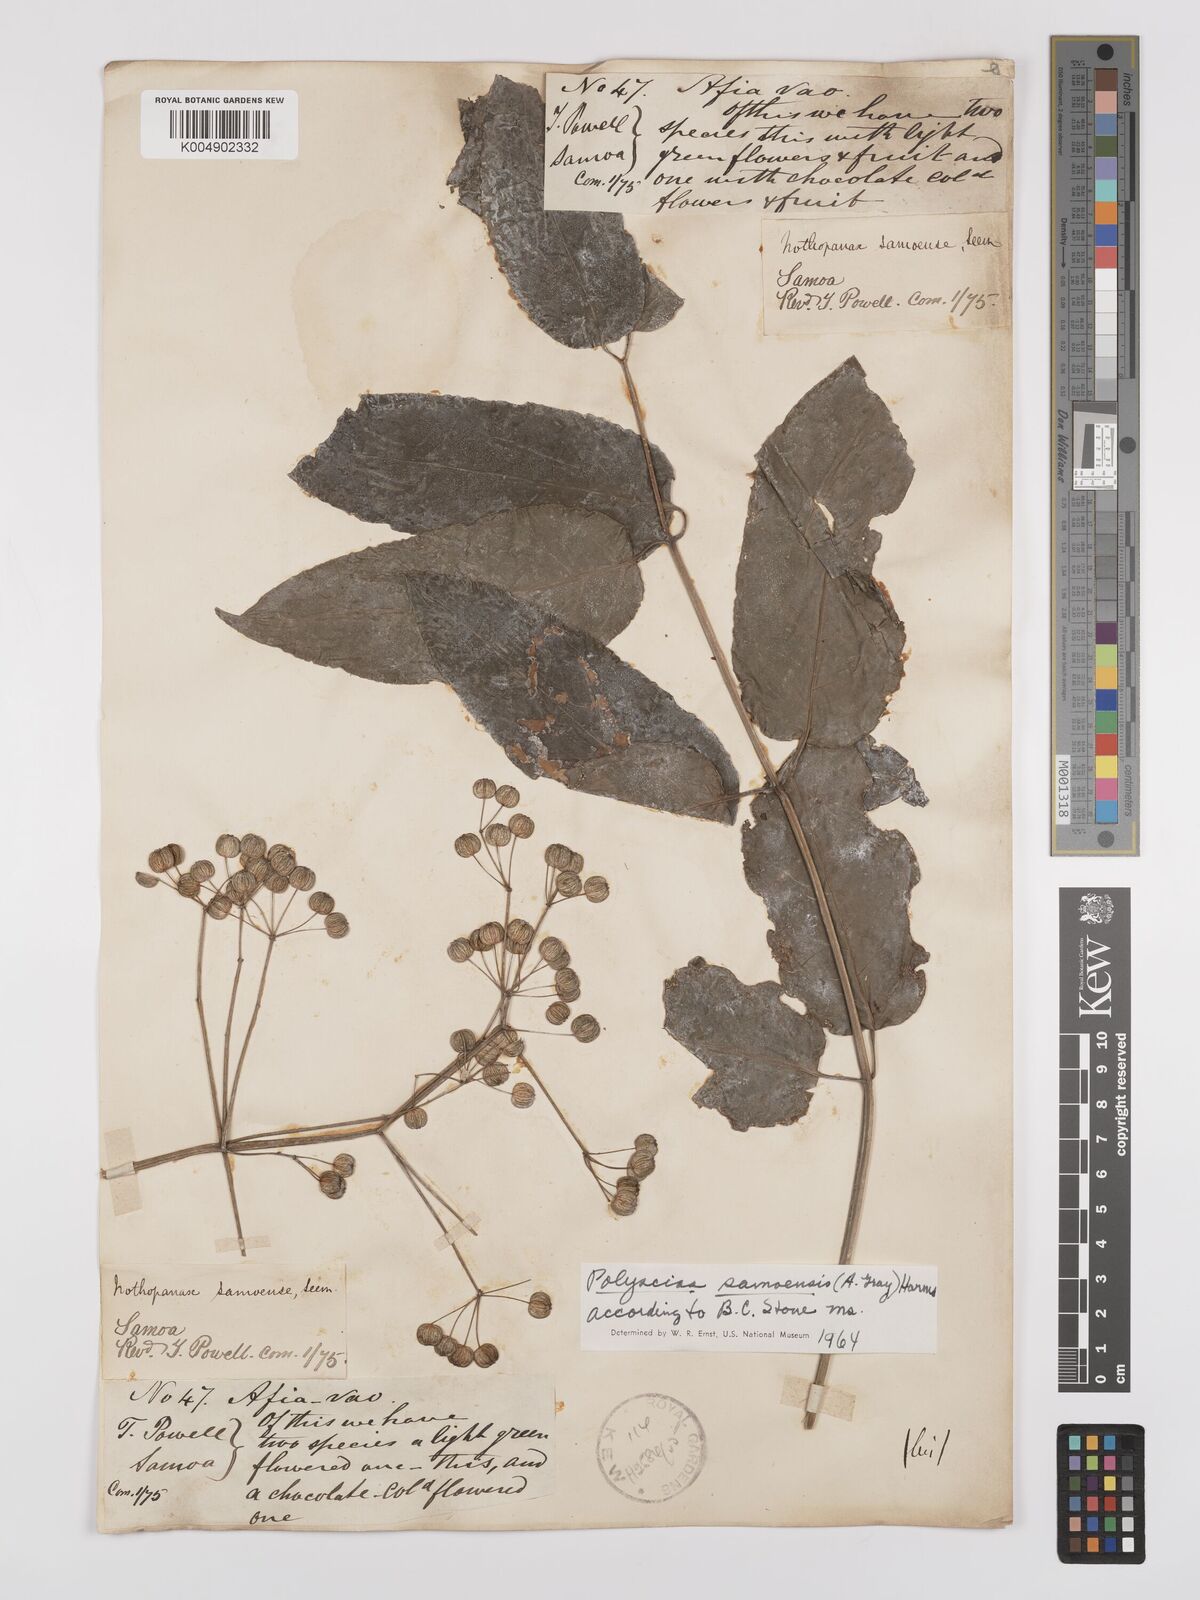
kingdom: Plantae
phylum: Tracheophyta
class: Magnoliopsida
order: Apiales
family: Araliaceae
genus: Polyscias
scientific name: Polyscias samoensis
